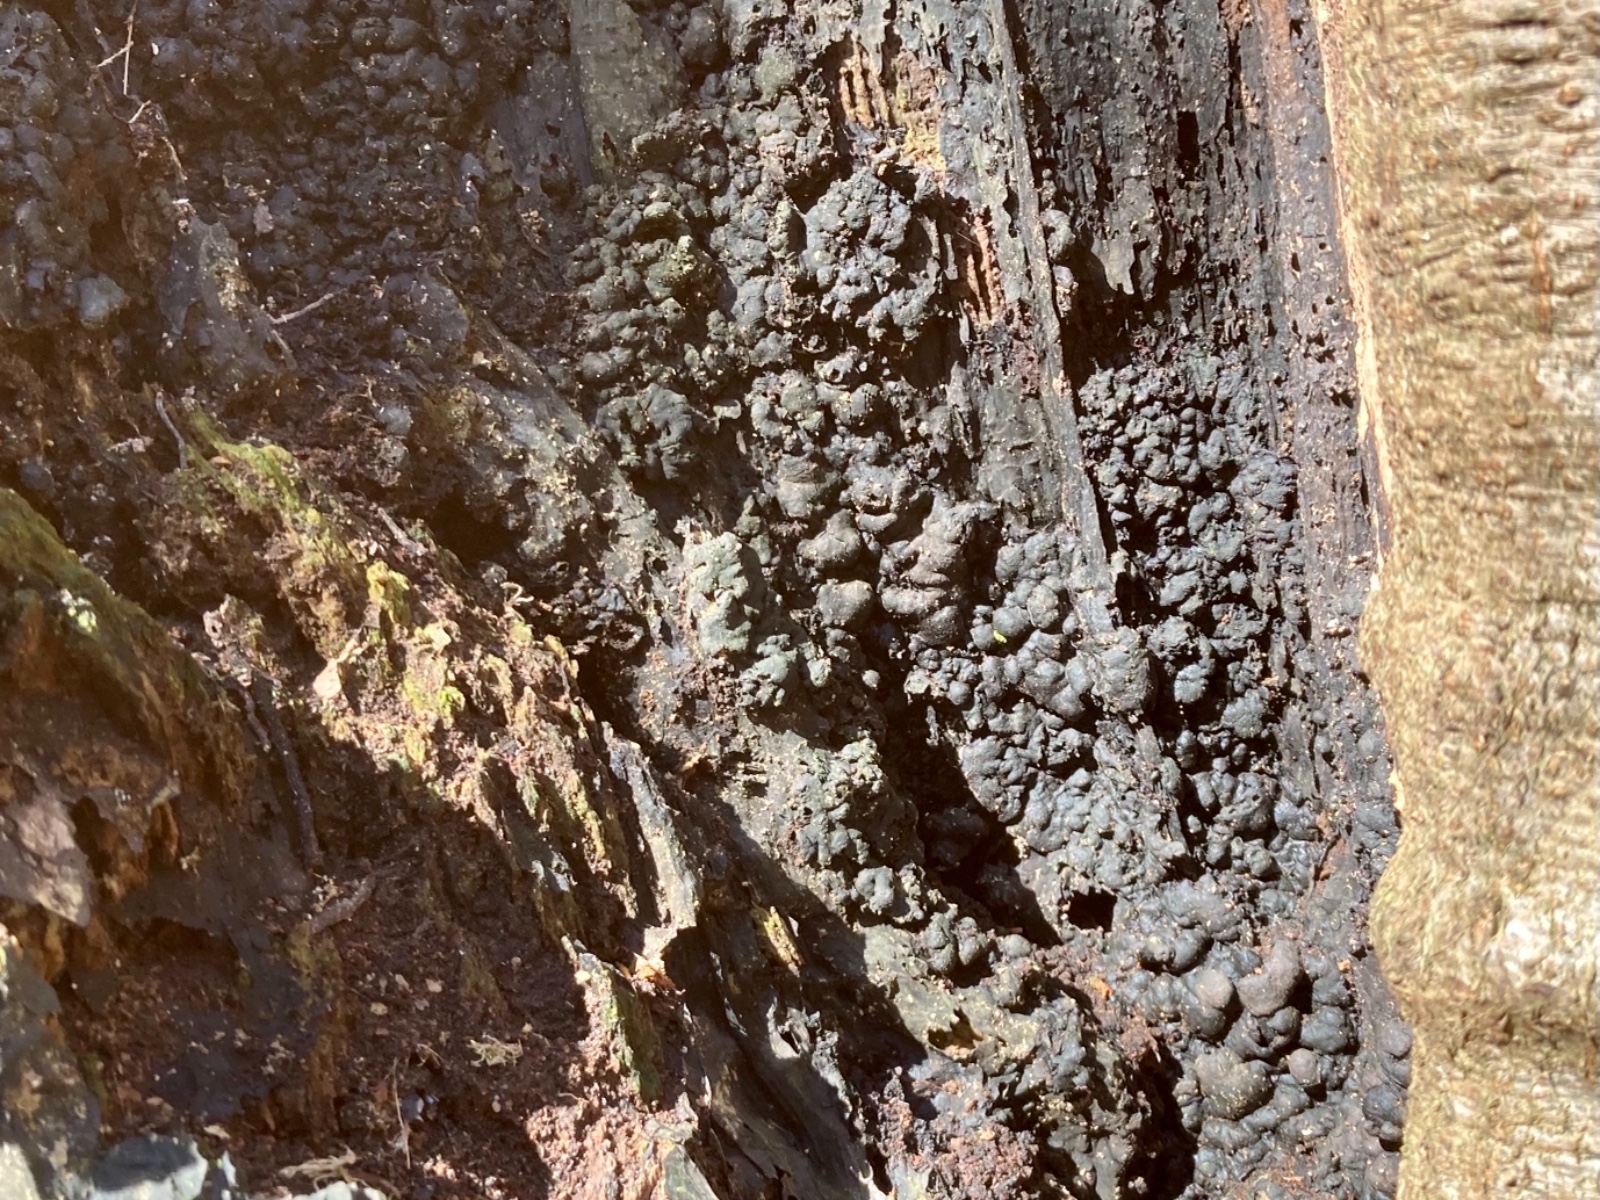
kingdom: Fungi
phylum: Ascomycota
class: Sordariomycetes
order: Xylariales
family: Xylariaceae
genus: Kretzschmaria
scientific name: Kretzschmaria deusta
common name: stor kulsvamp
